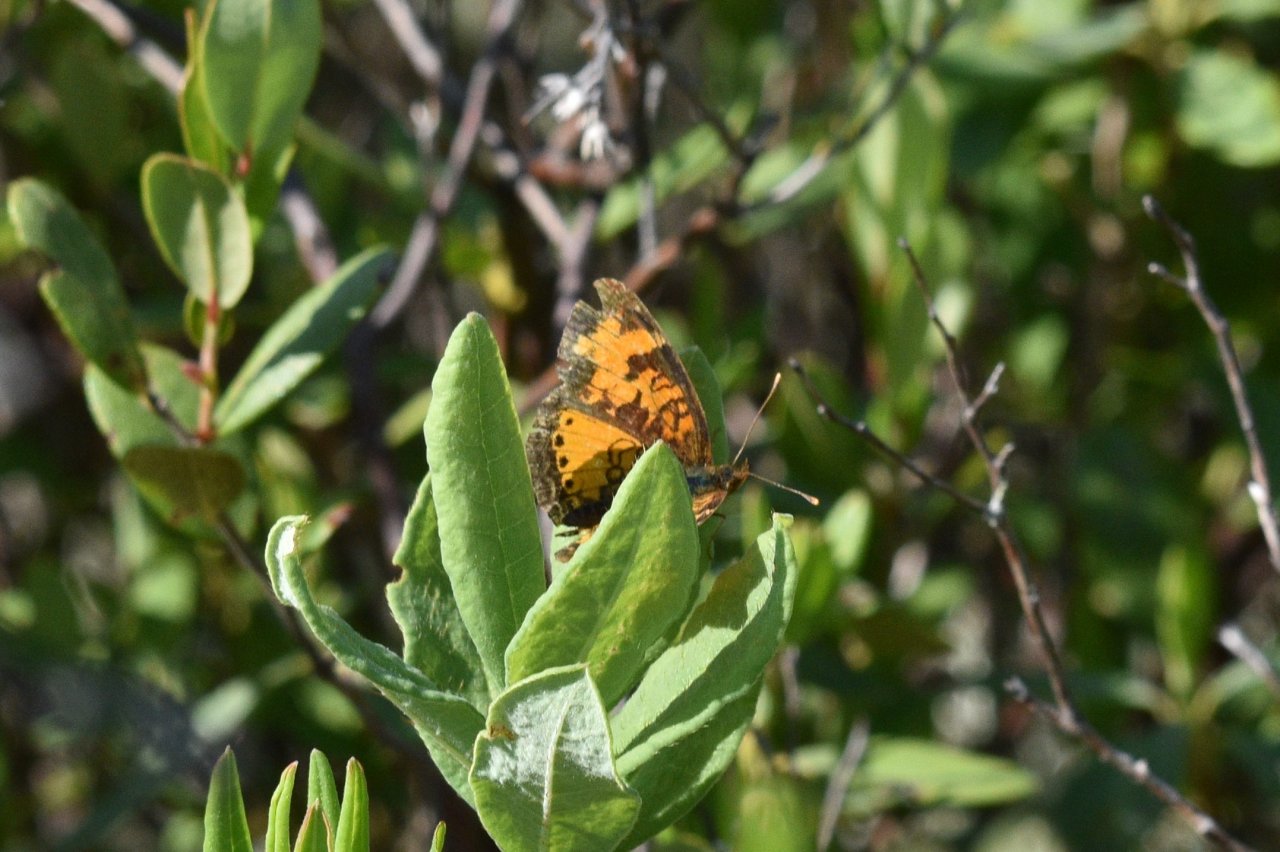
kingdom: Animalia
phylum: Arthropoda
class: Insecta
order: Lepidoptera
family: Nymphalidae
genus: Phyciodes
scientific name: Phyciodes tharos
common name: Northern Crescent
